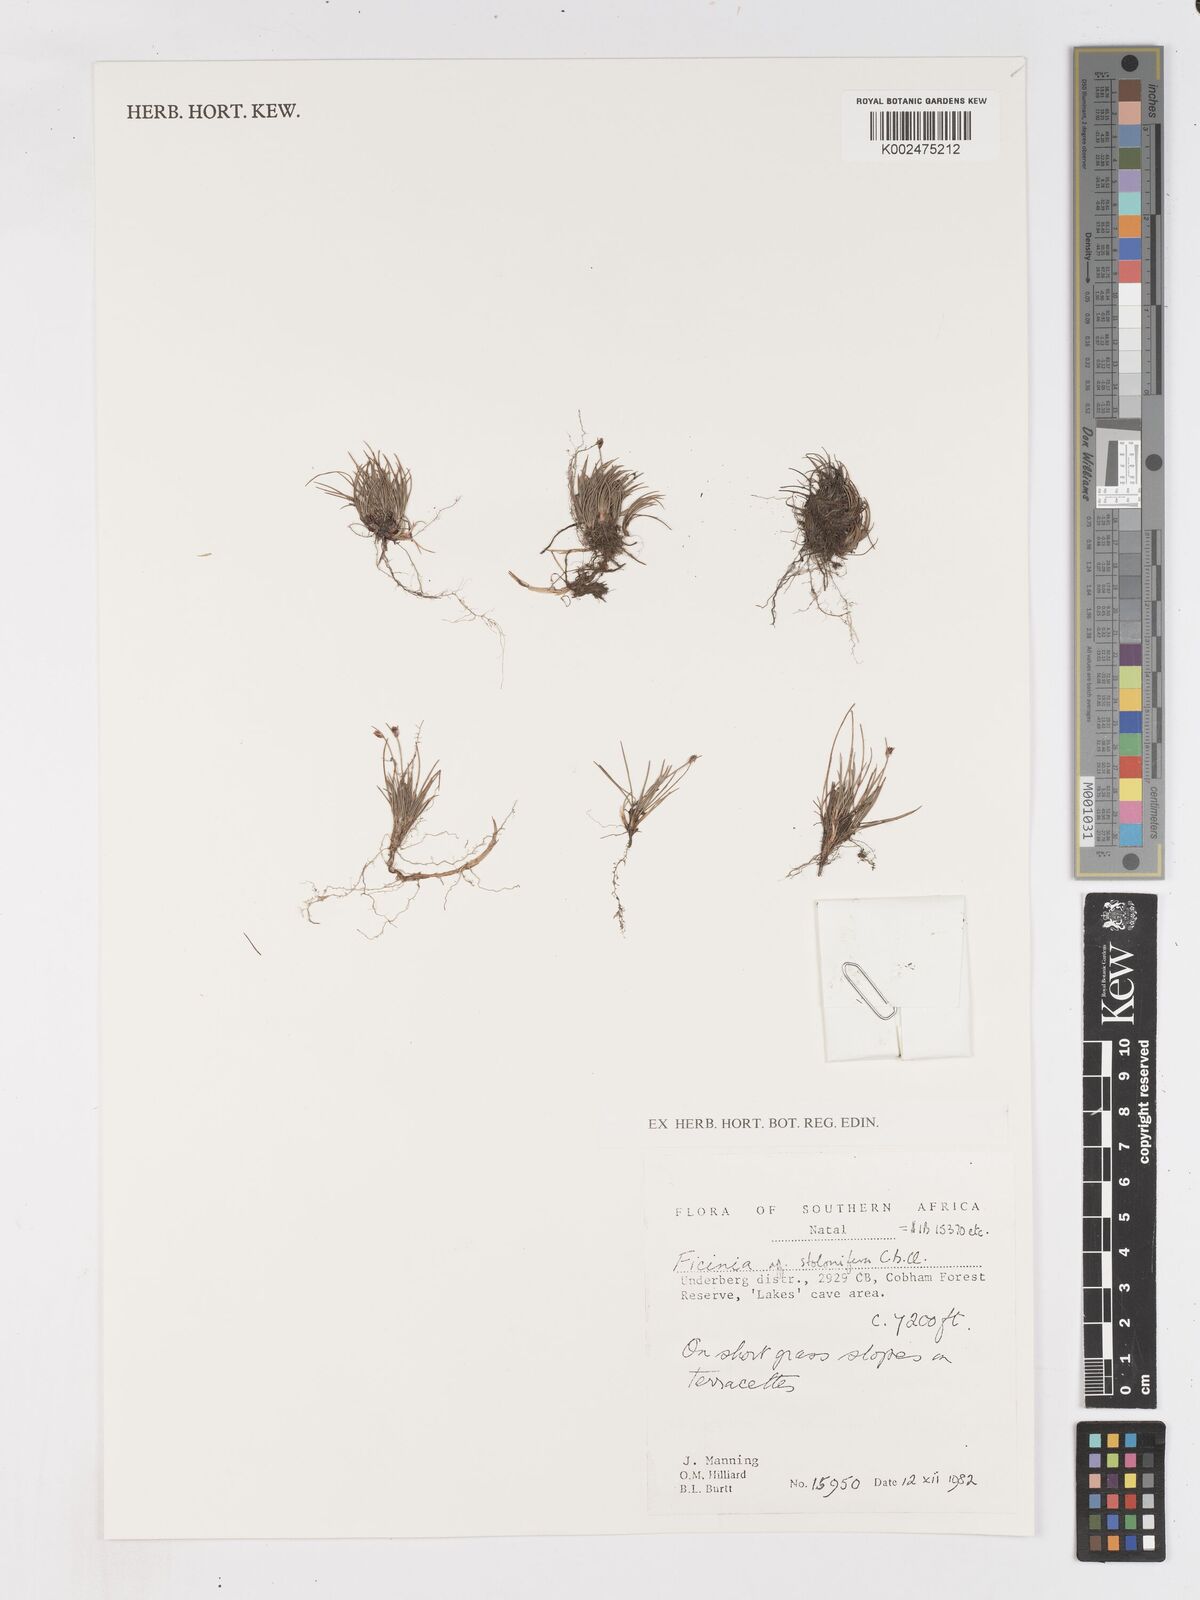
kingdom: Plantae
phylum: Tracheophyta
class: Liliopsida
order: Poales
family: Cyperaceae
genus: Ficinia
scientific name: Ficinia
